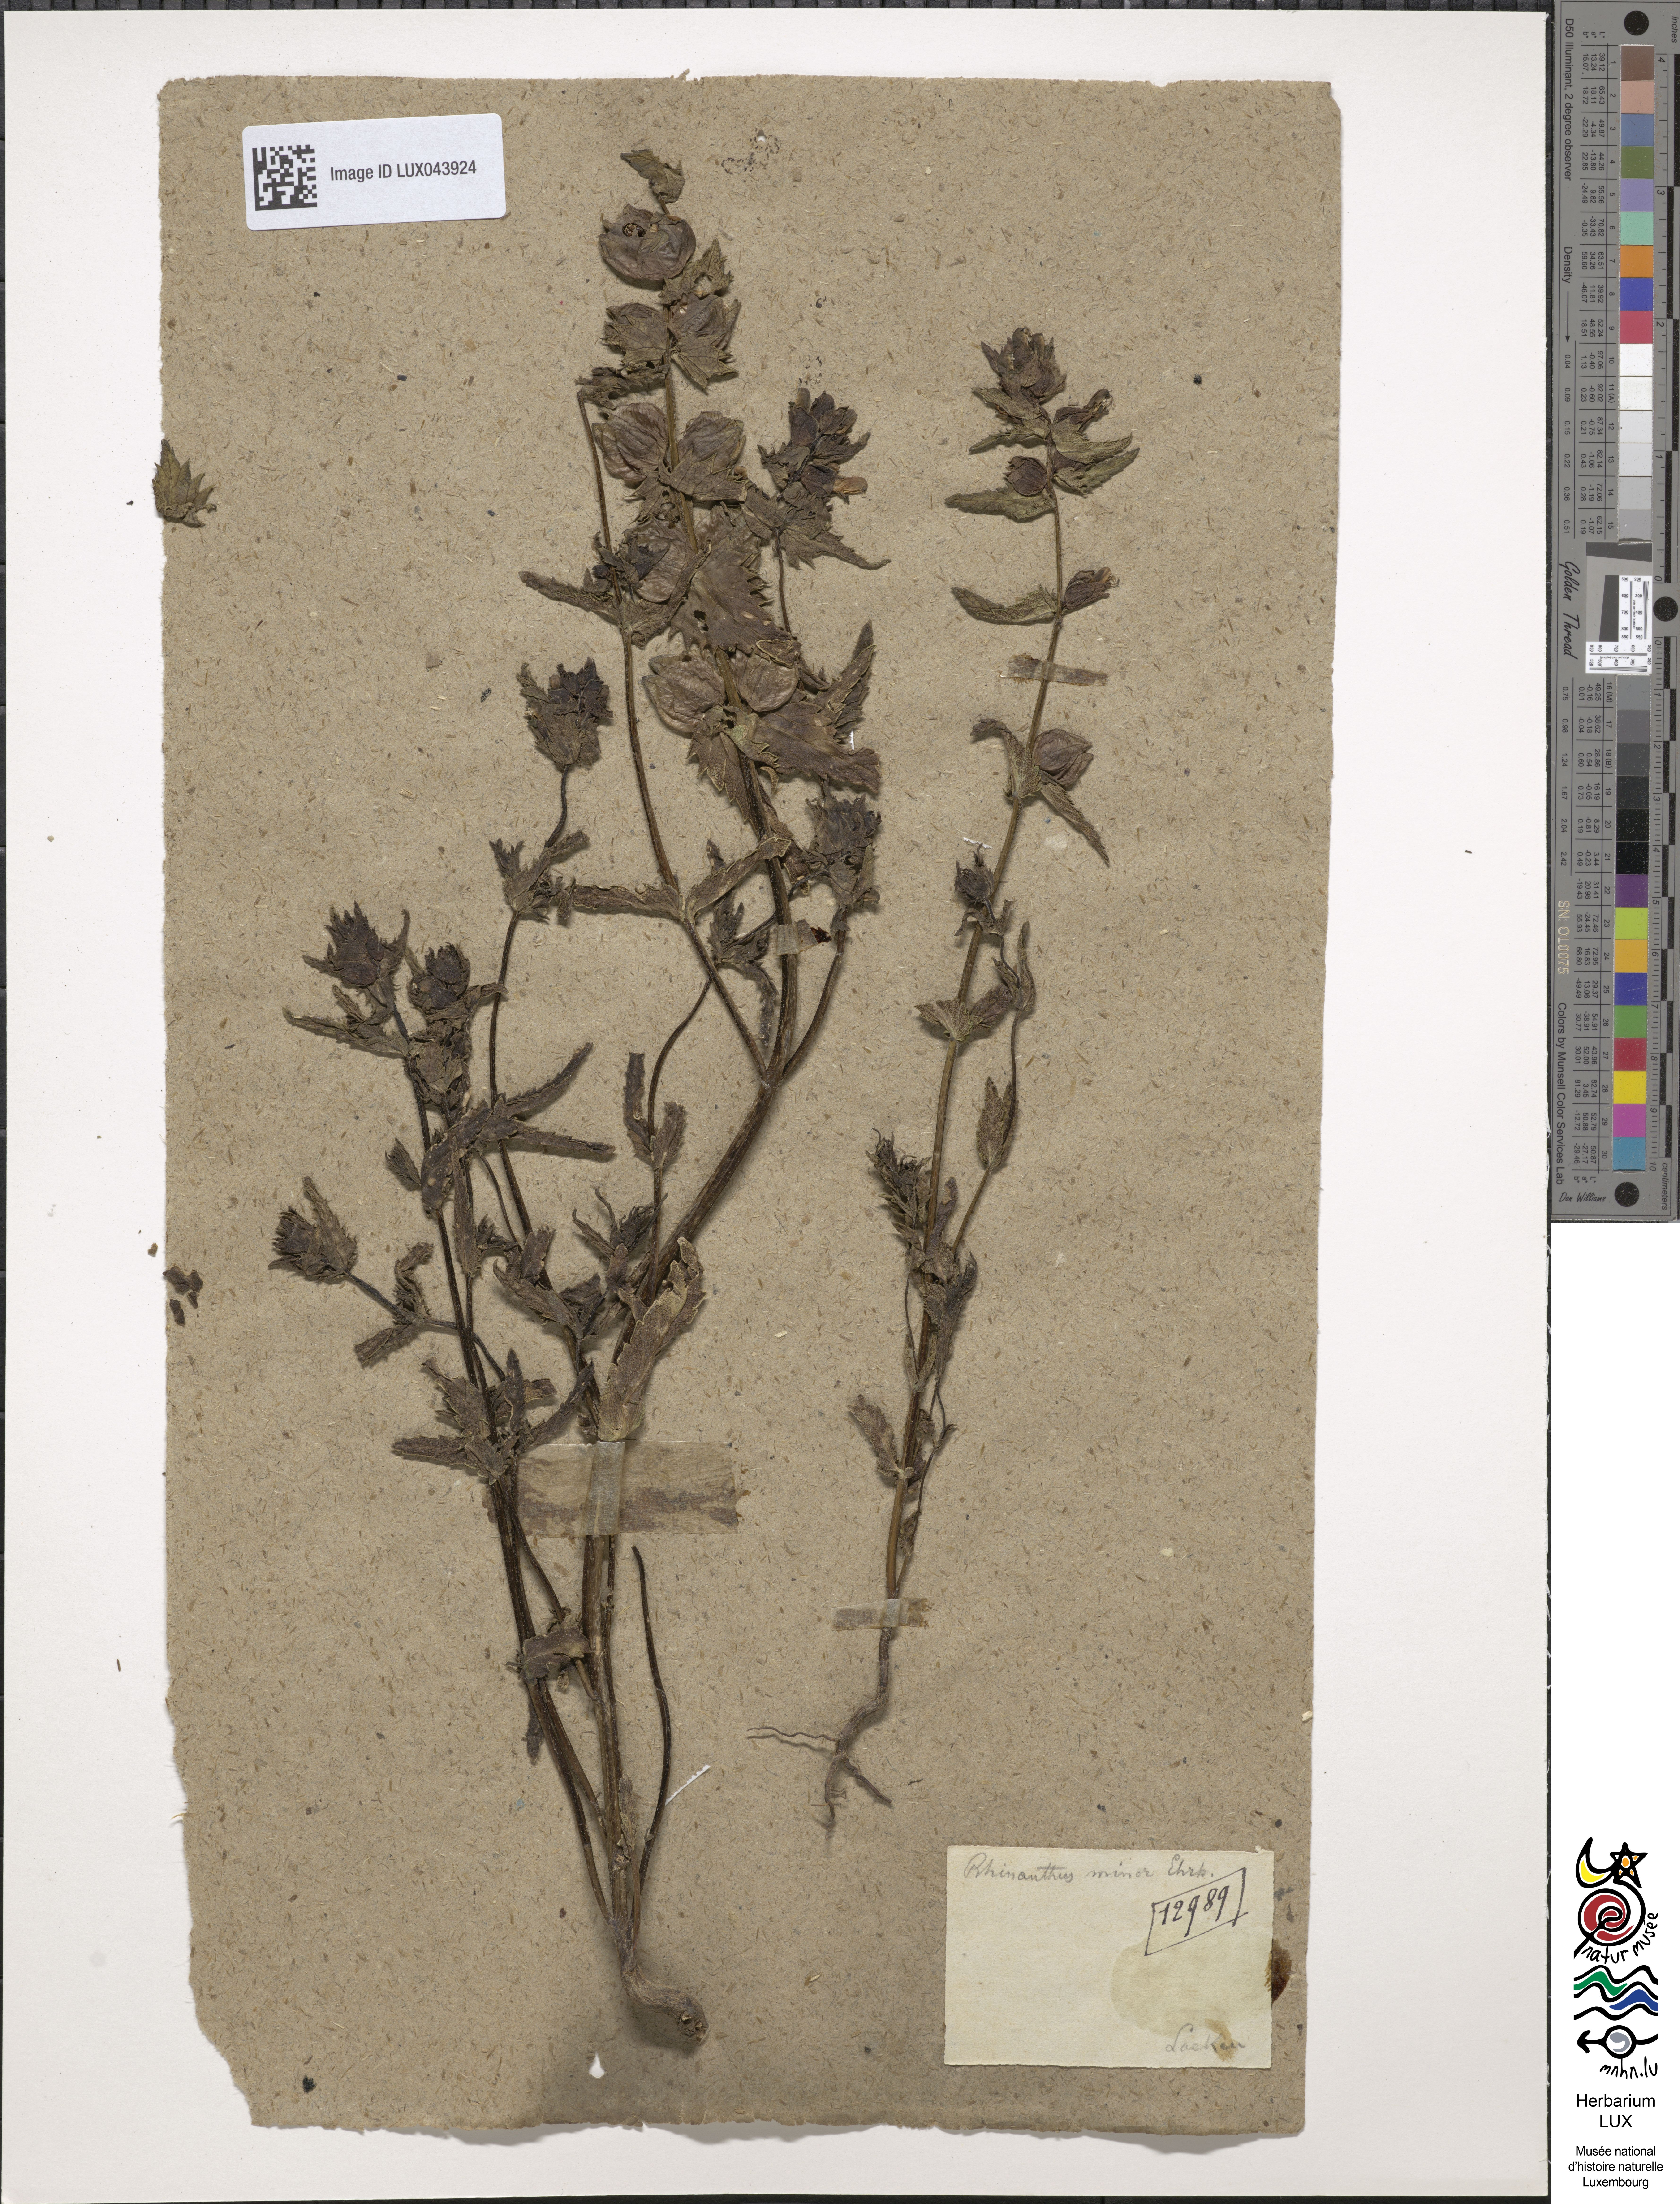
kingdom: Plantae
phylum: Tracheophyta
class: Magnoliopsida
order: Lamiales
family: Orobanchaceae
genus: Rhinanthus
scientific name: Rhinanthus minor
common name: Yellow-rattle
